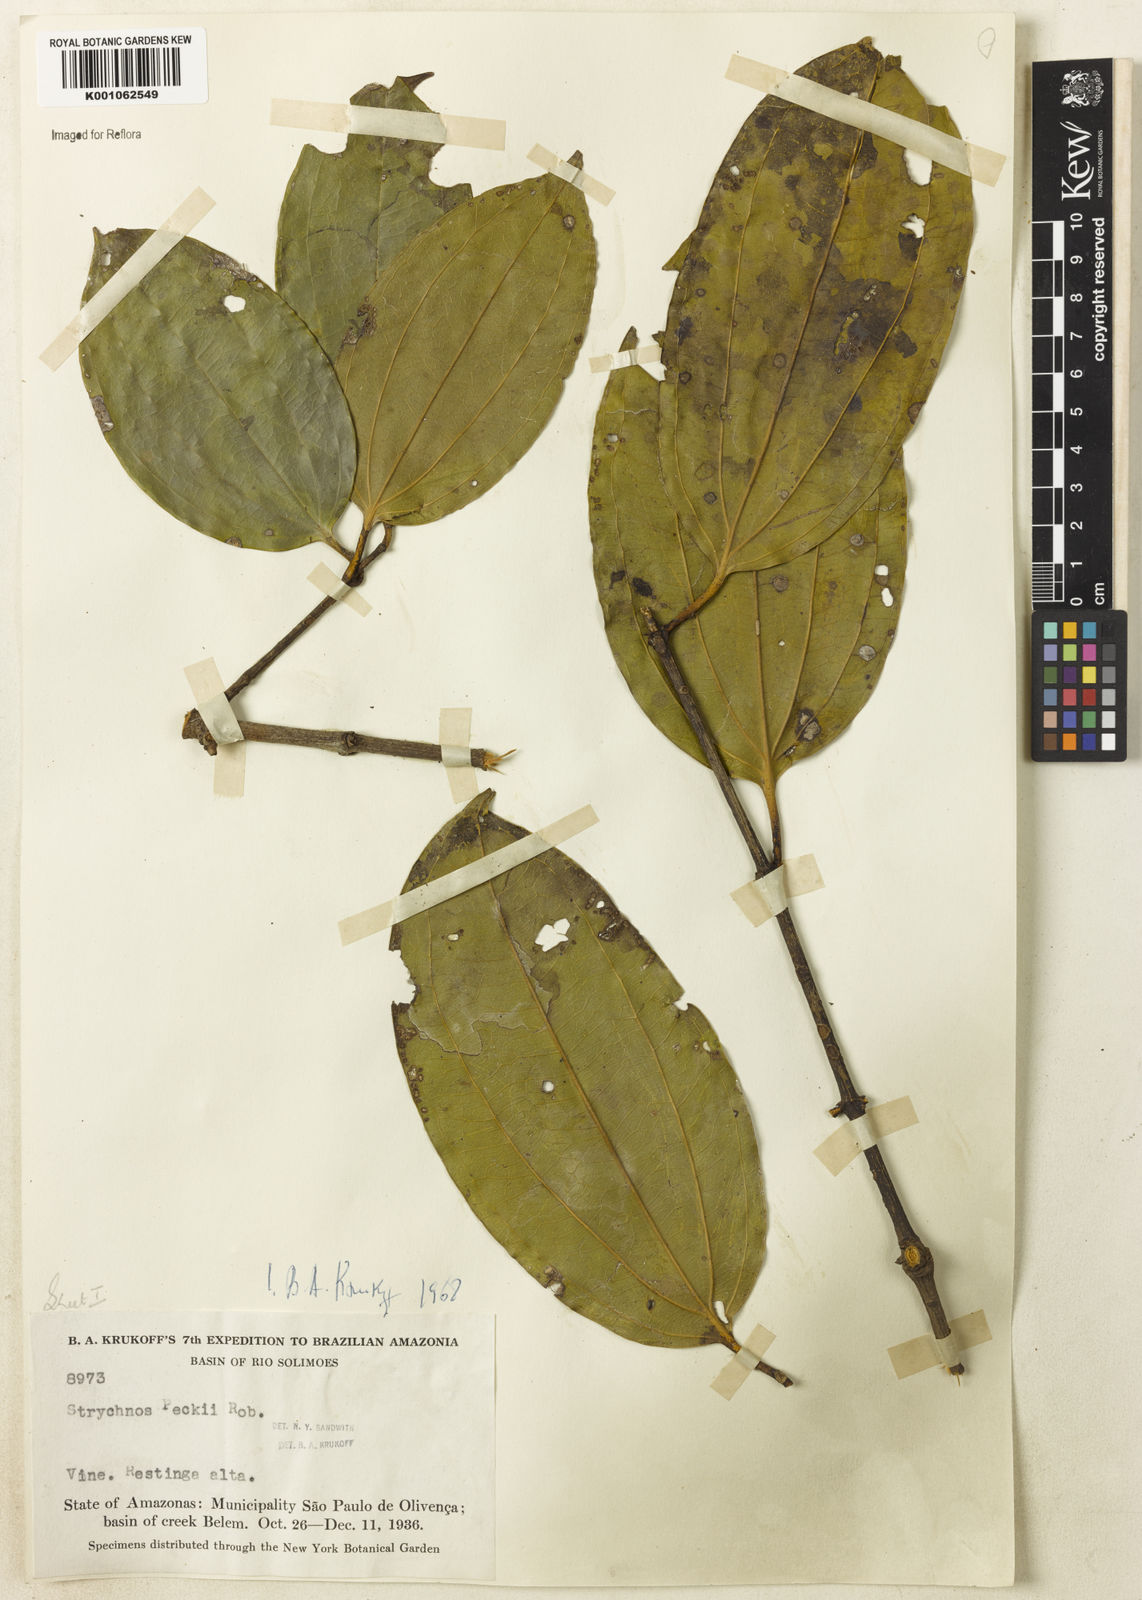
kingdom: Plantae
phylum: Tracheophyta
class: Magnoliopsida
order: Gentianales
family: Loganiaceae
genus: Strychnos
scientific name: Strychnos peckii
